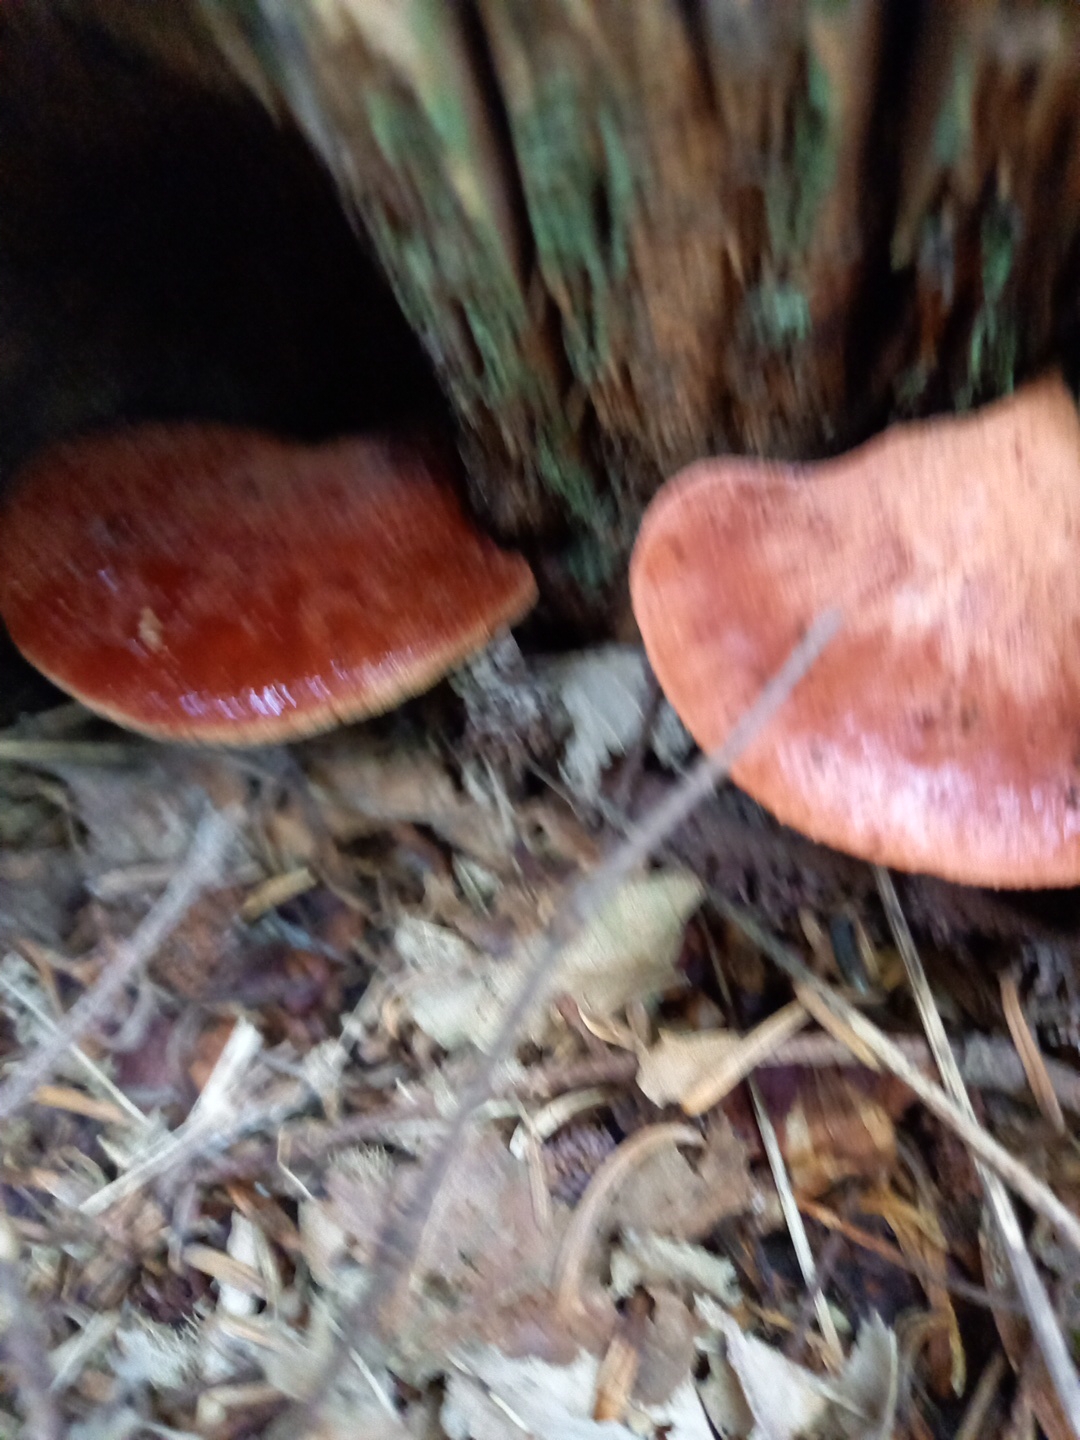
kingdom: Fungi
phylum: Basidiomycota
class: Agaricomycetes
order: Agaricales
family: Fistulinaceae
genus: Fistulina
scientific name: Fistulina hepatica
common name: oksetunge
